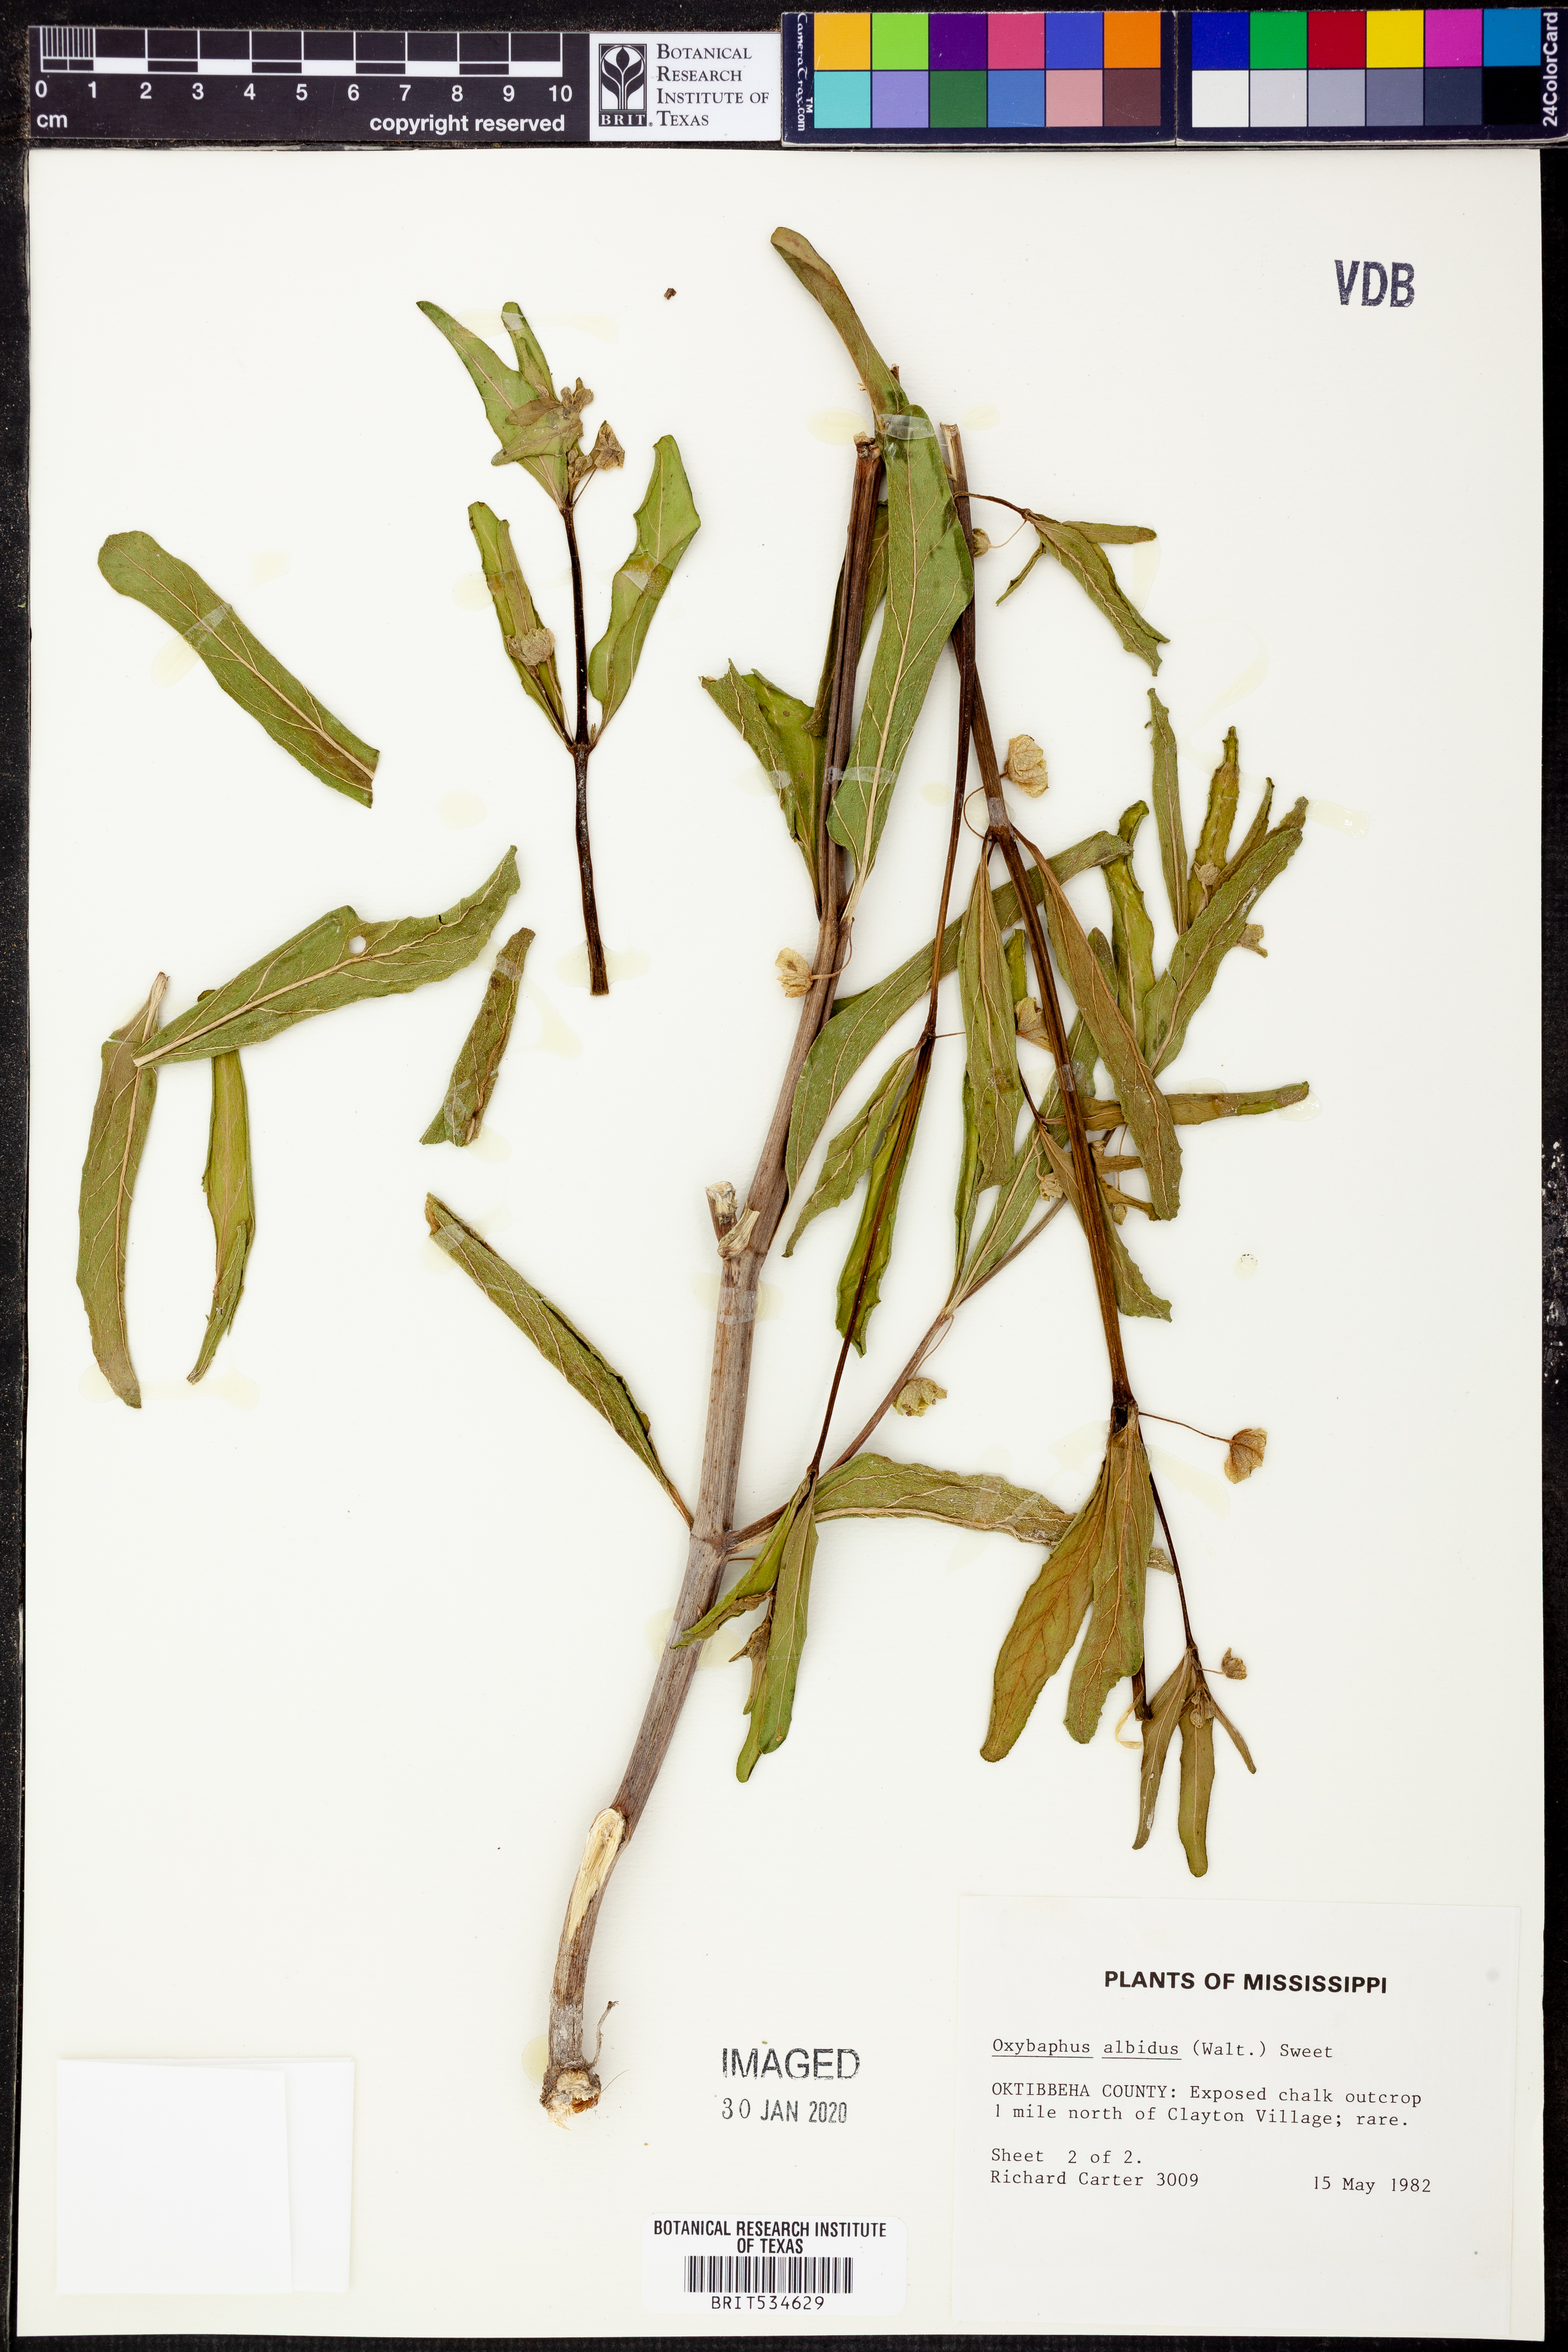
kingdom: Plantae
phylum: Tracheophyta
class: Magnoliopsida
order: Caryophyllales
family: Nyctaginaceae
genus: Mirabilis
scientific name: Mirabilis albida
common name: Hairy four-o'clock
